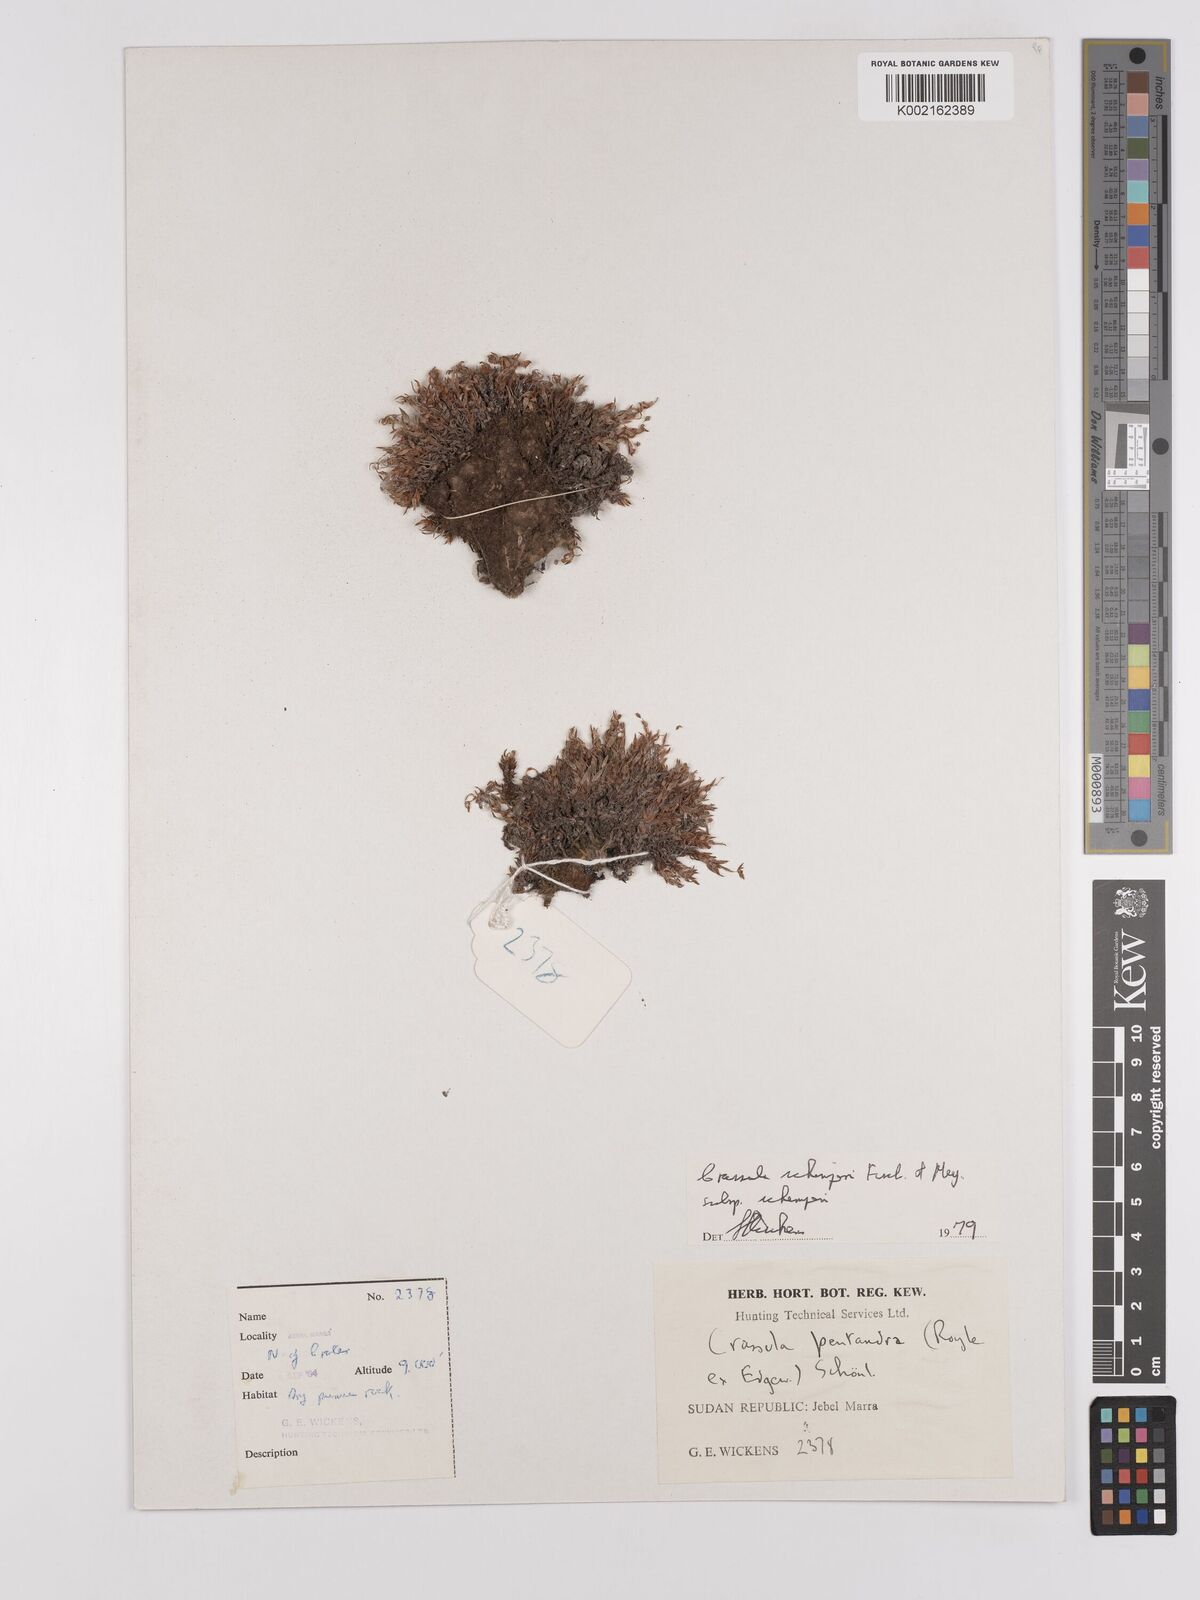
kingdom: Plantae
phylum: Tracheophyta
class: Magnoliopsida
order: Saxifragales
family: Crassulaceae
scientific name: Crassulaceae
